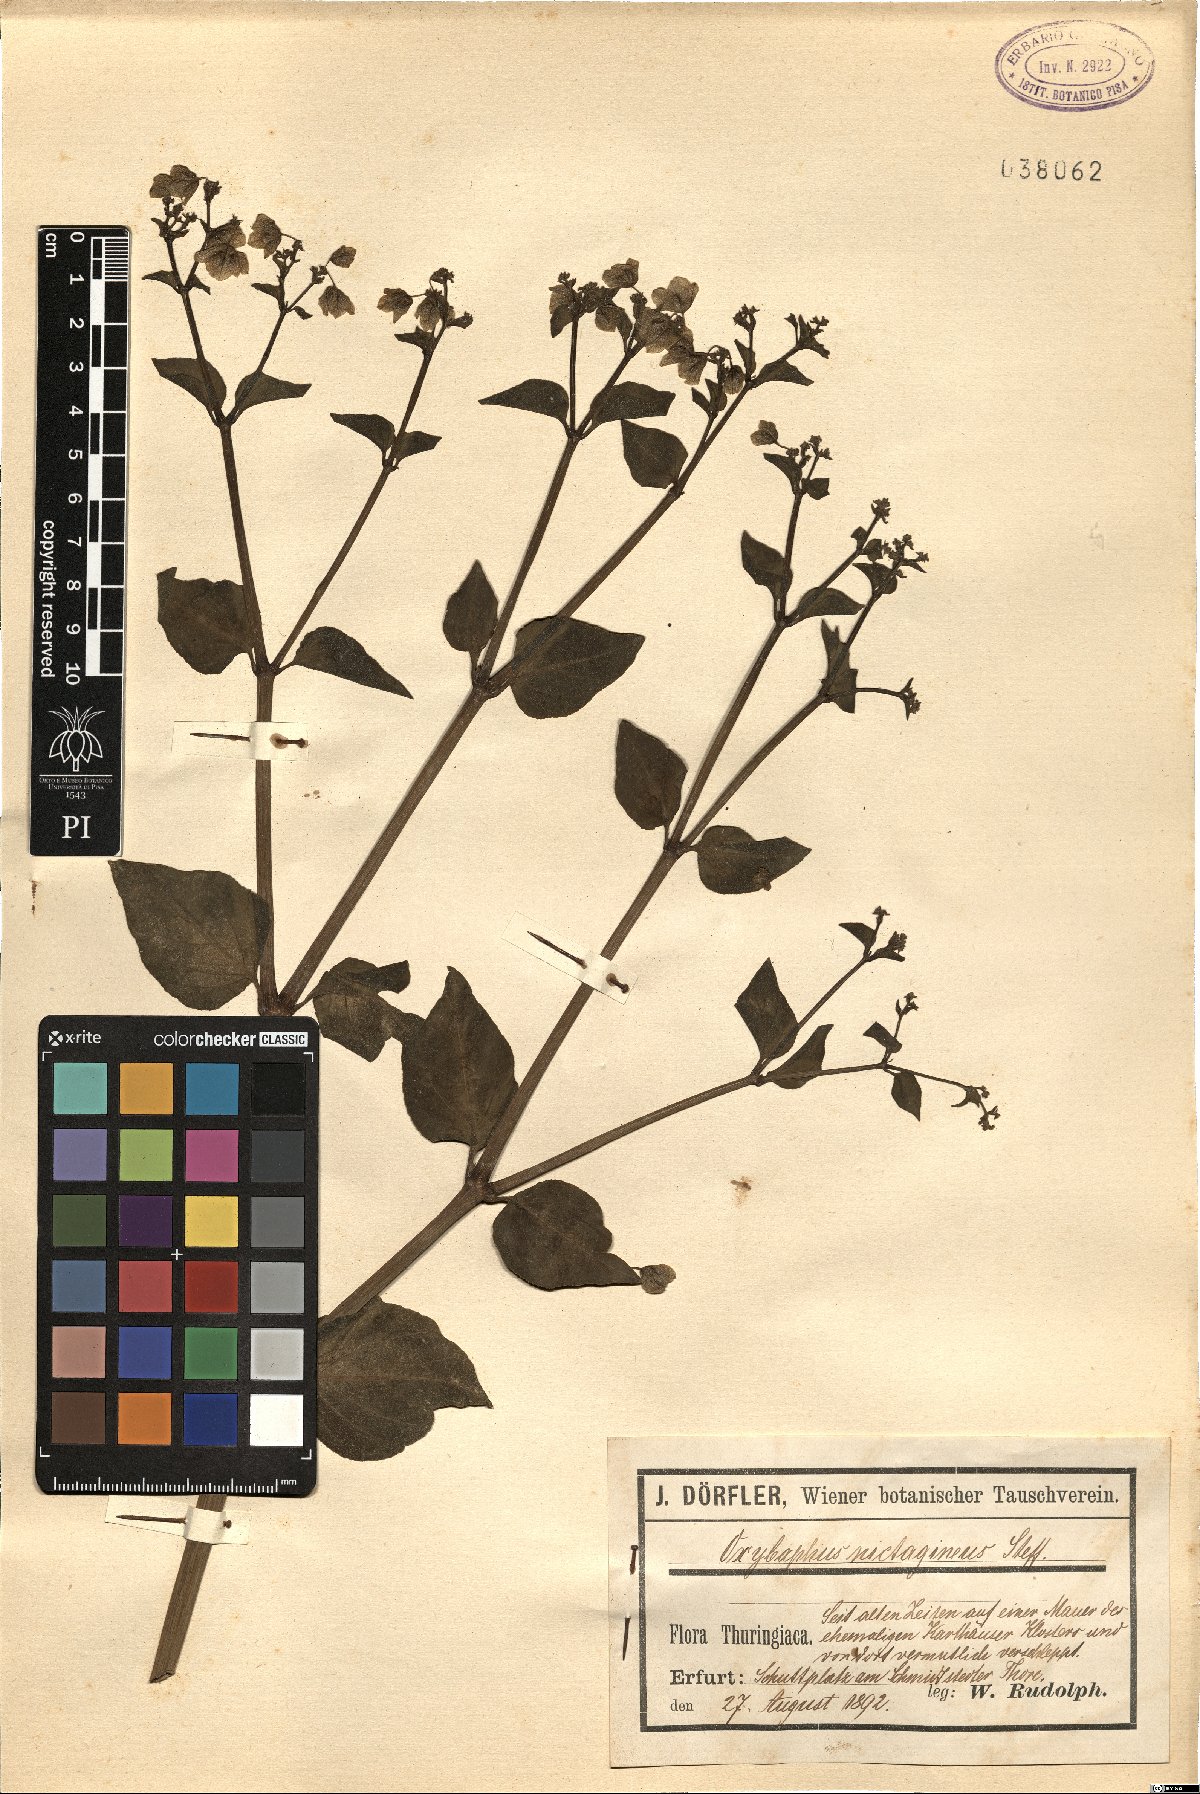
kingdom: Plantae
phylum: Tracheophyta
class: Magnoliopsida
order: Caryophyllales
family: Nyctaginaceae
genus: Mirabilis
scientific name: Mirabilis nyctaginea
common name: Umbrella wort
